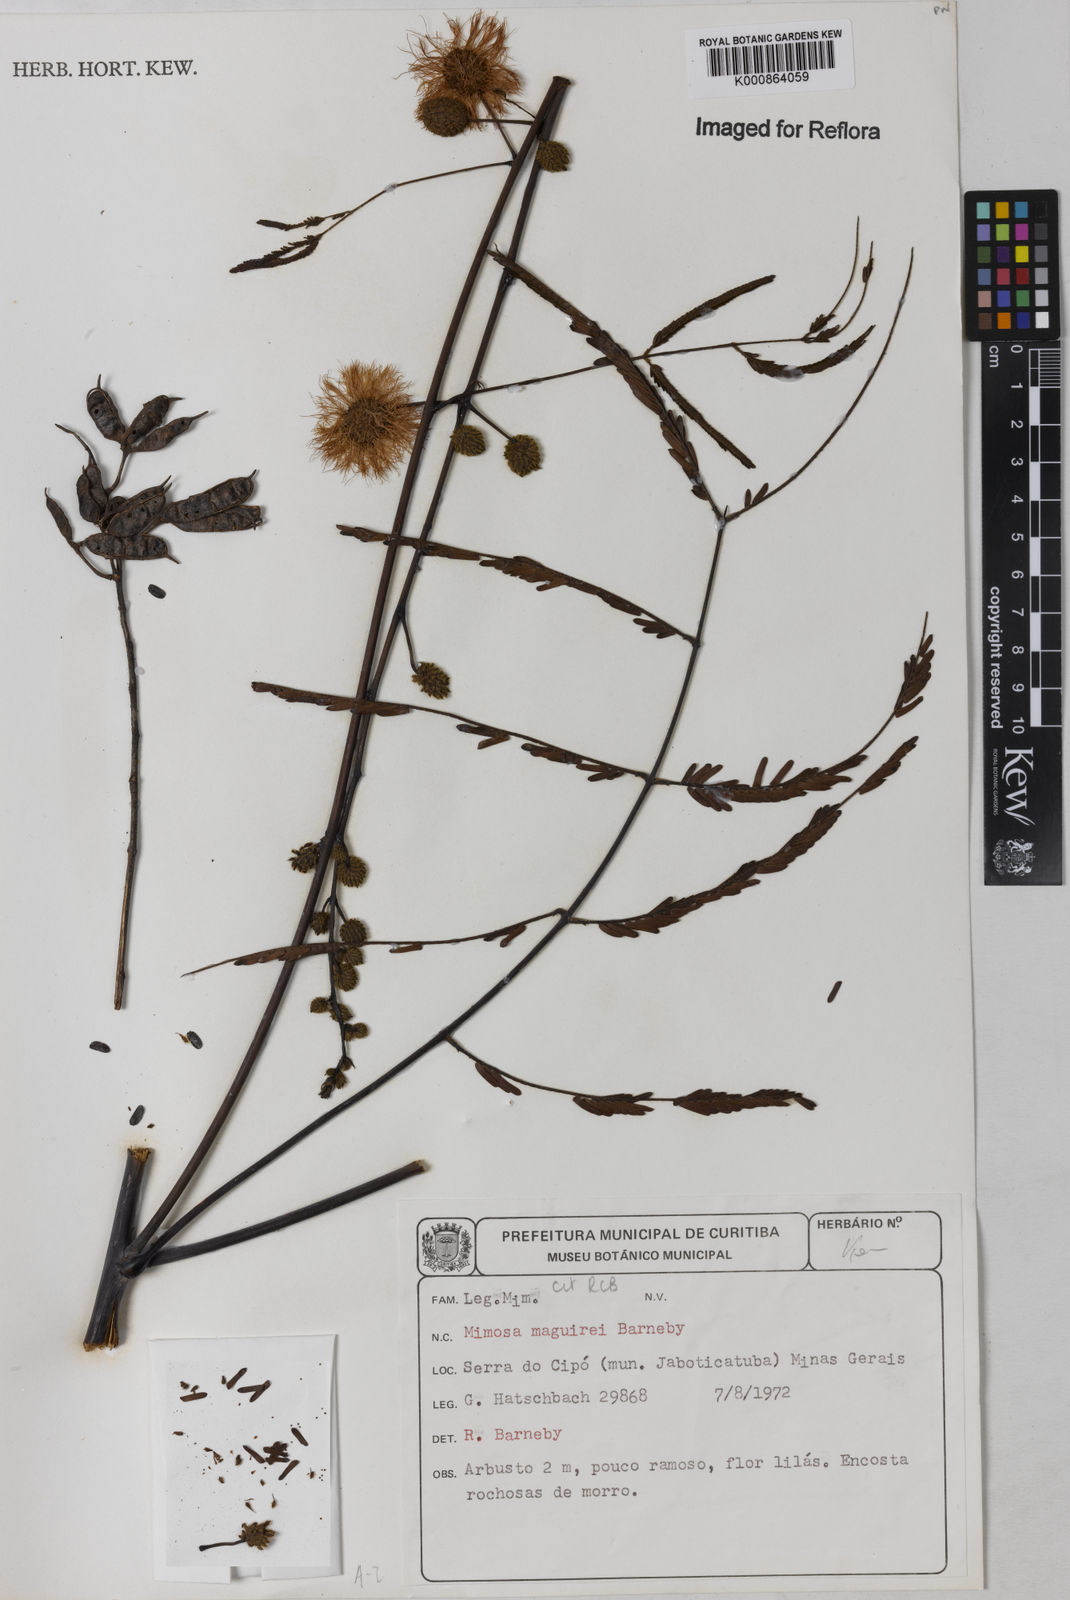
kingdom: Plantae
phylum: Tracheophyta
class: Magnoliopsida
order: Fabales
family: Fabaceae
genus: Mimosa
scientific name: Mimosa maguirei
